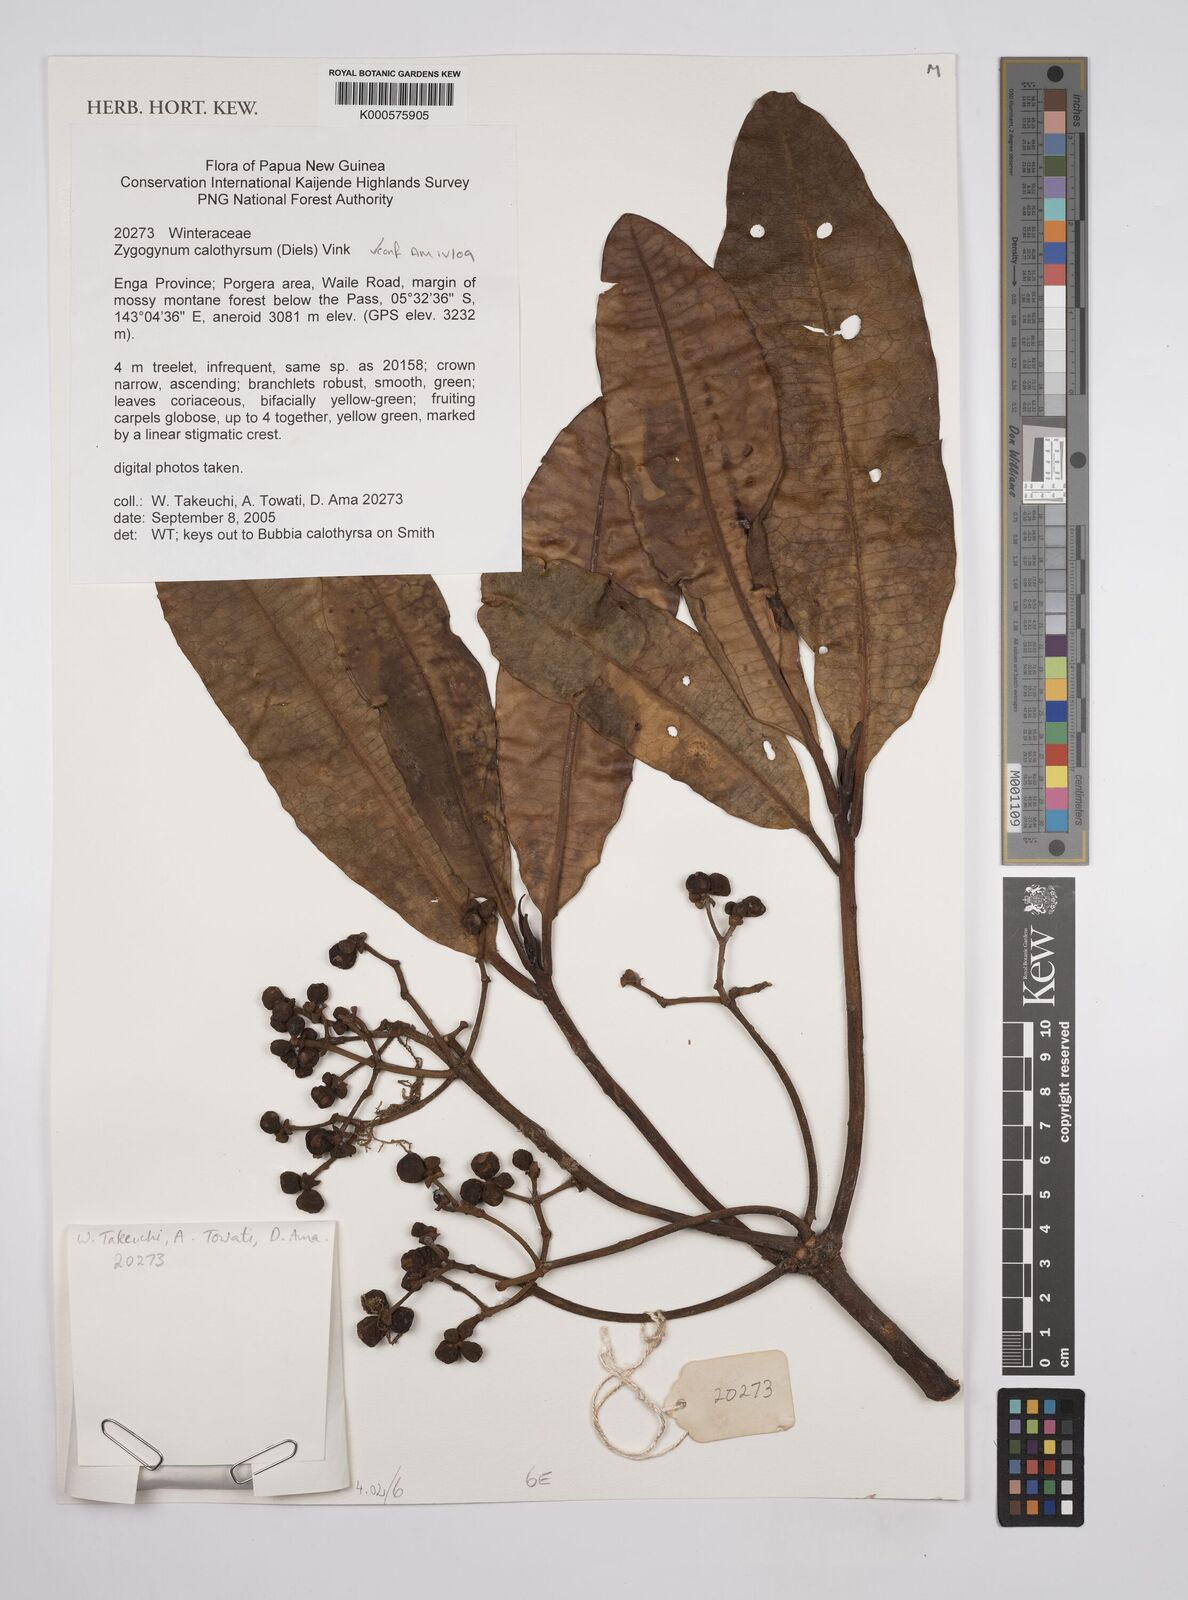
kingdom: Plantae
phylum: Tracheophyta
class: Magnoliopsida
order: Canellales
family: Winteraceae
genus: Zygogynum
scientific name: Zygogynum calothyrsum
